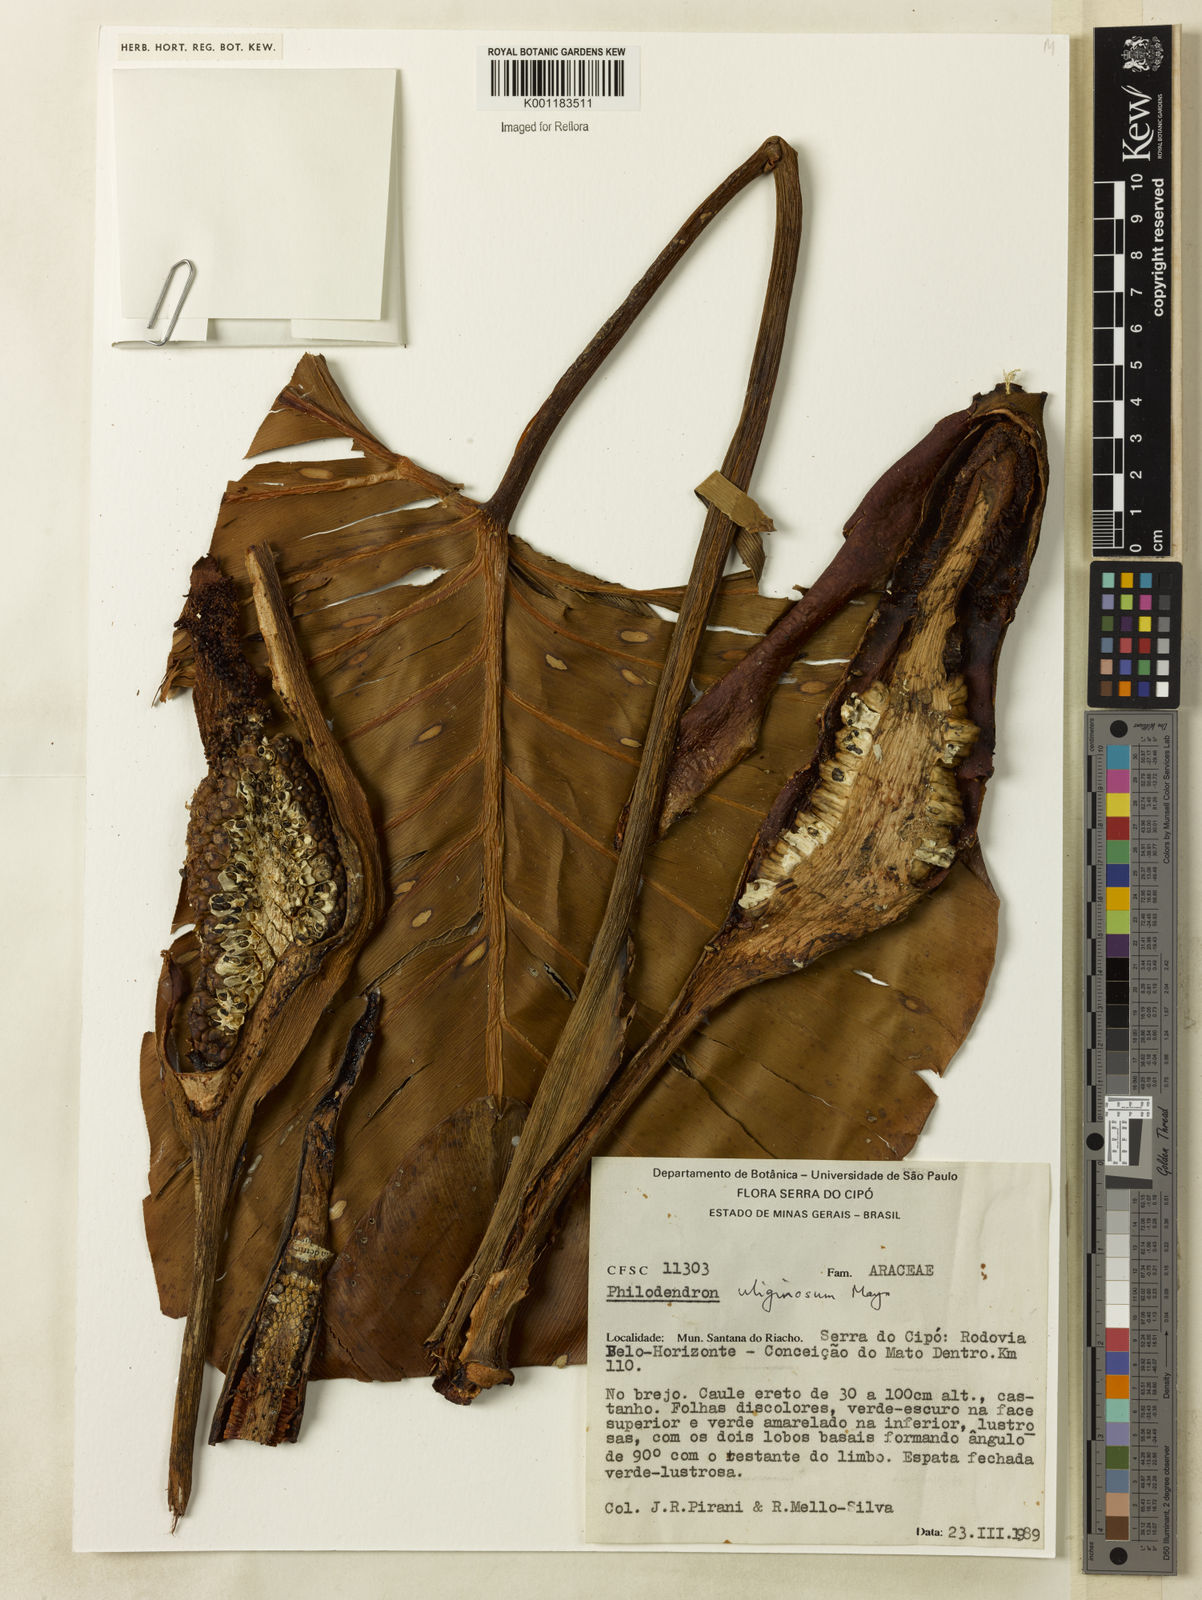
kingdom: Plantae
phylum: Tracheophyta
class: Liliopsida
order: Alismatales
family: Araceae
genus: Thaumatophyllum
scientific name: Thaumatophyllum uliginosum
